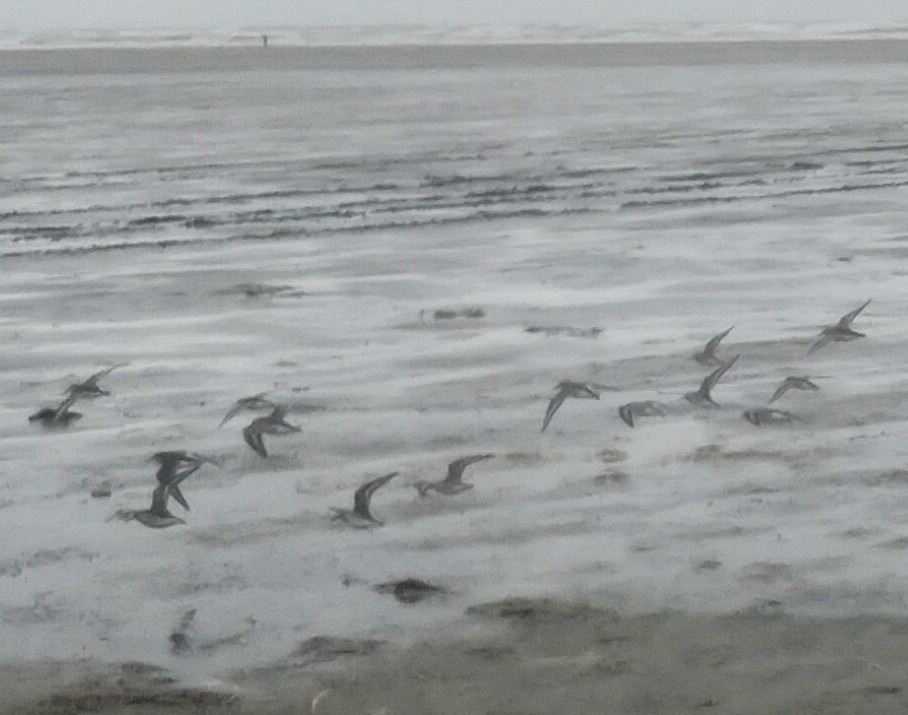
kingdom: Animalia
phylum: Chordata
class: Aves
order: Charadriiformes
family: Scolopacidae
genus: Calidris
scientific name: Calidris alpina
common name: Almindelig ryle
